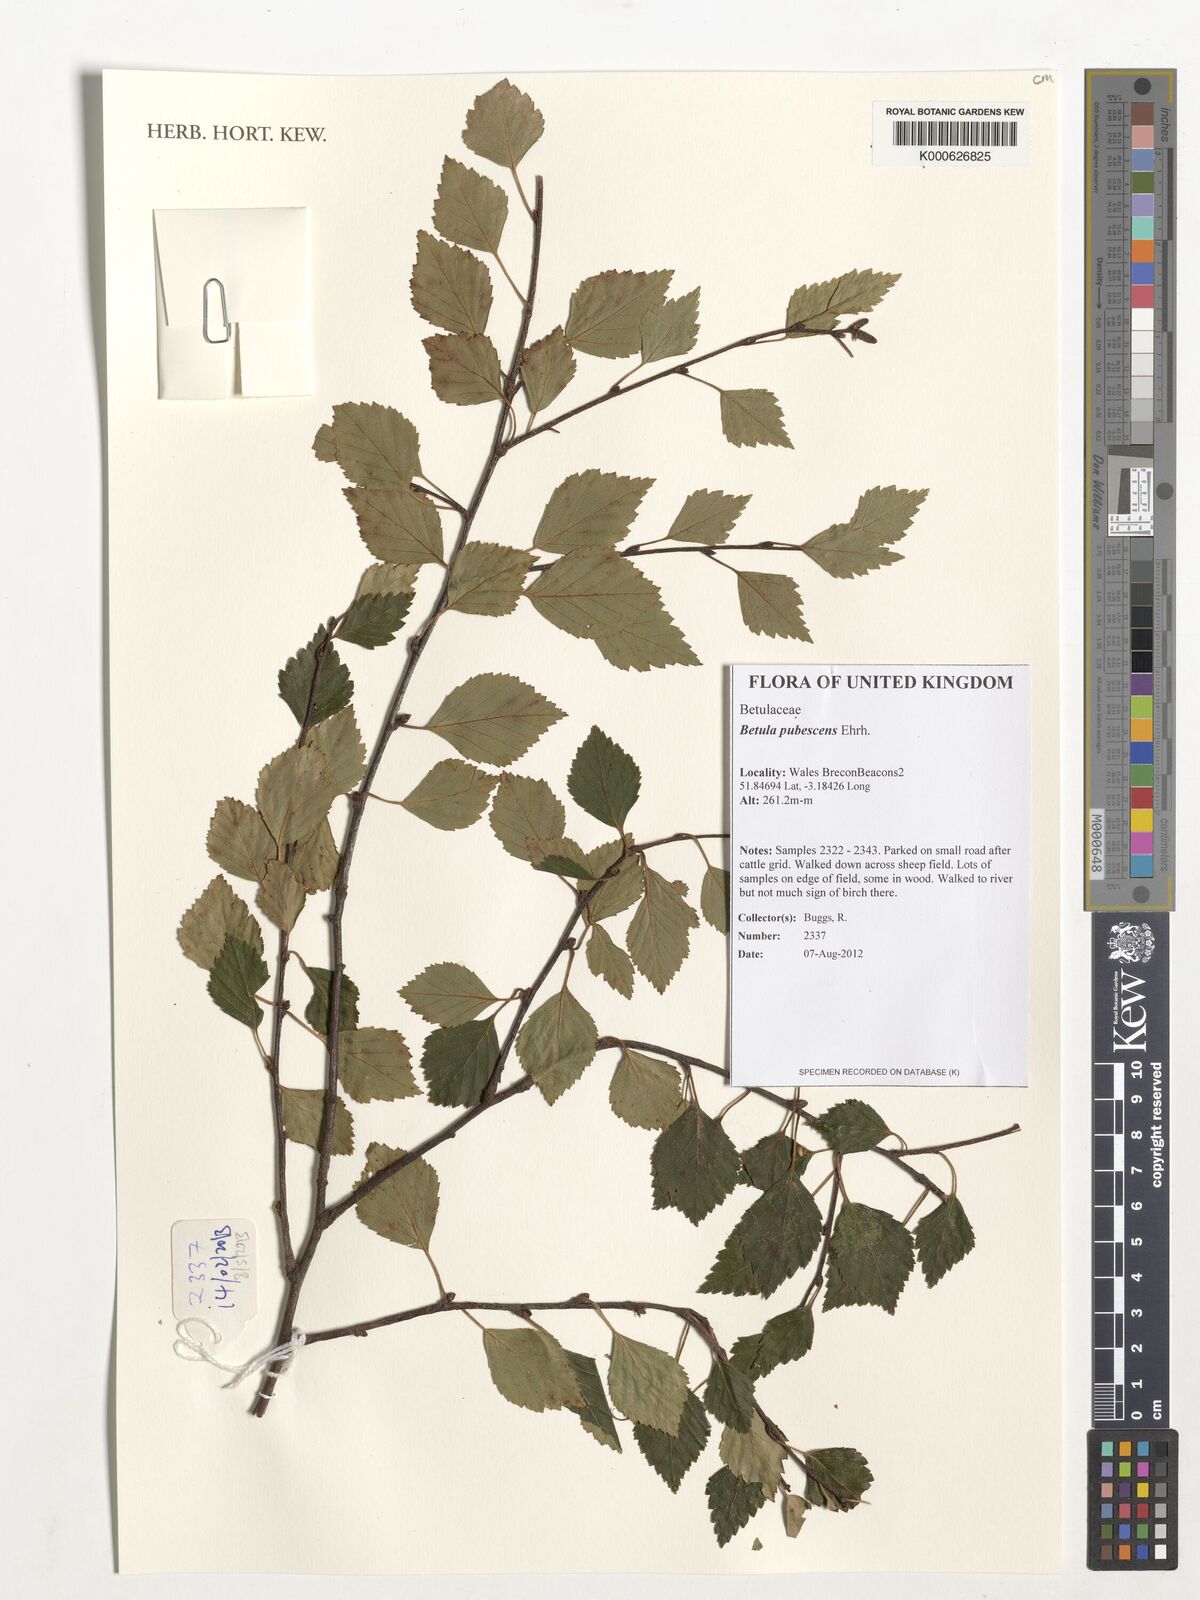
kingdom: Plantae
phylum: Tracheophyta
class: Magnoliopsida
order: Fagales
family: Betulaceae
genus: Betula
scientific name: Betula pubescens
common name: Downy birch
